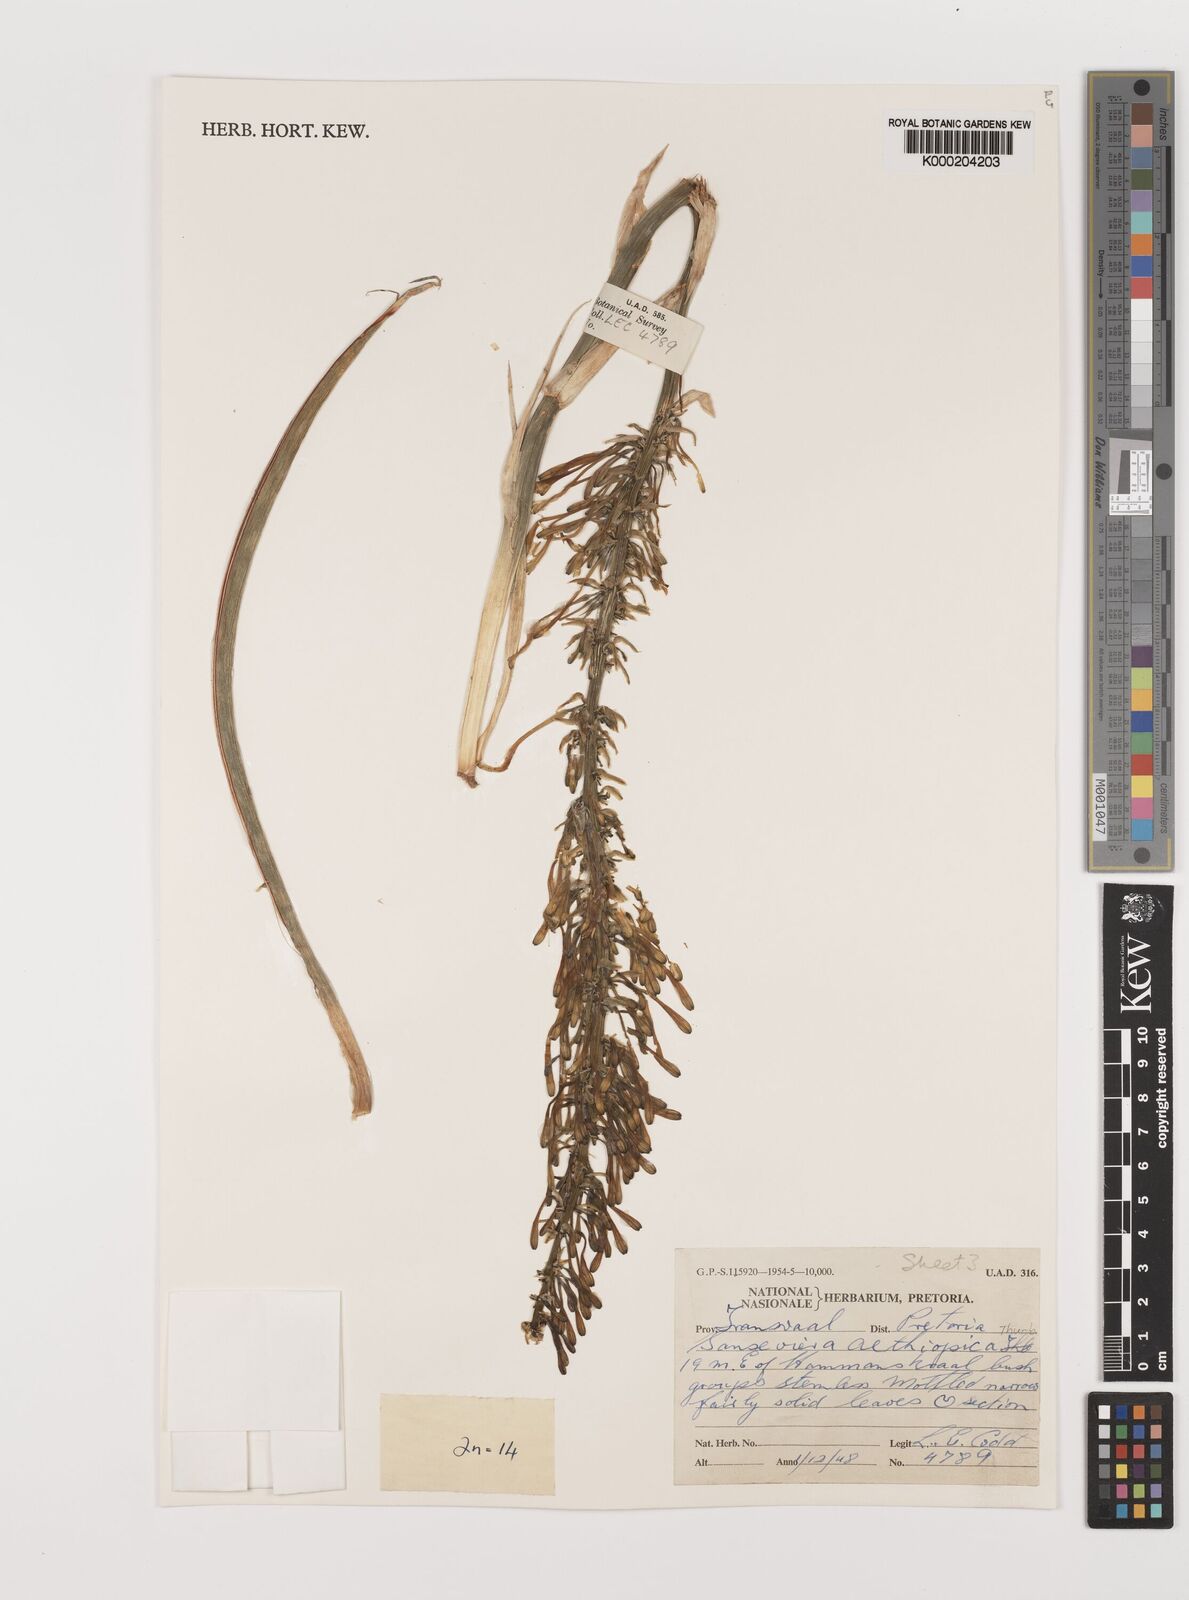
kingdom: Plantae
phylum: Tracheophyta
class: Liliopsida
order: Asparagales
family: Asparagaceae
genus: Dracaena
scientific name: Dracaena powellii
